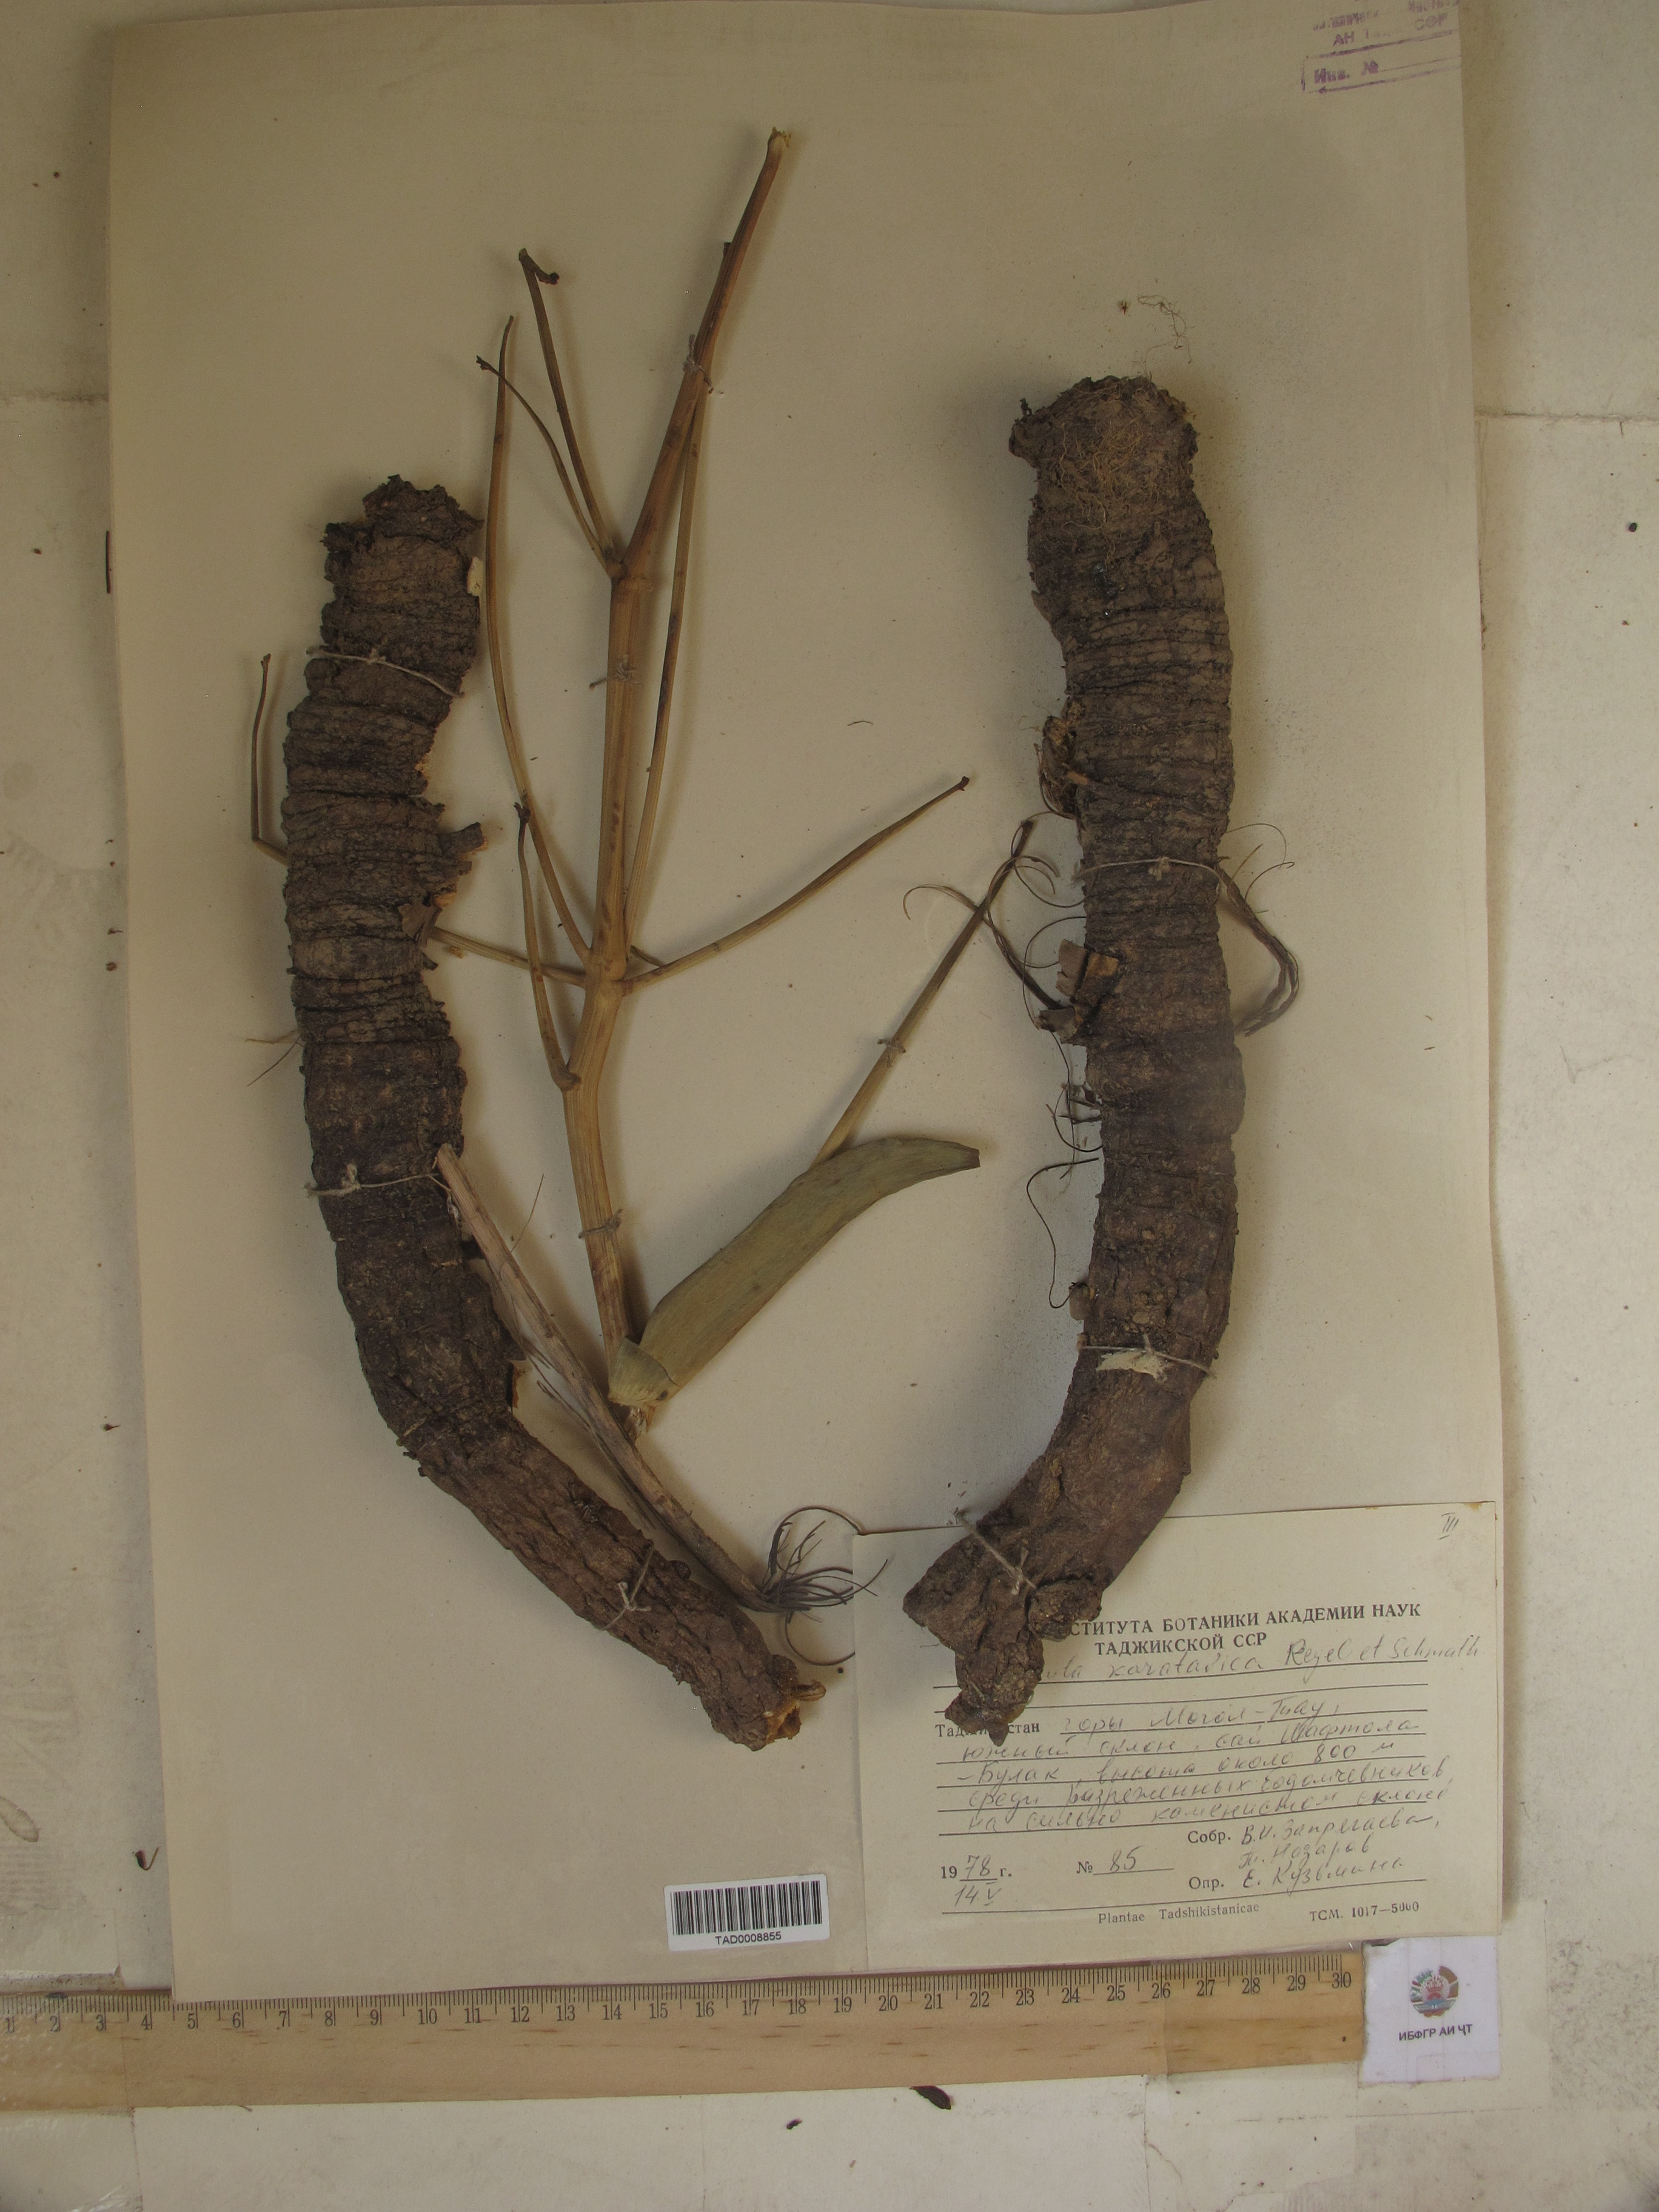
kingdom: Plantae
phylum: Tracheophyta
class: Magnoliopsida
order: Apiales
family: Apiaceae
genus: Ferula
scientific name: Ferula karatavica
